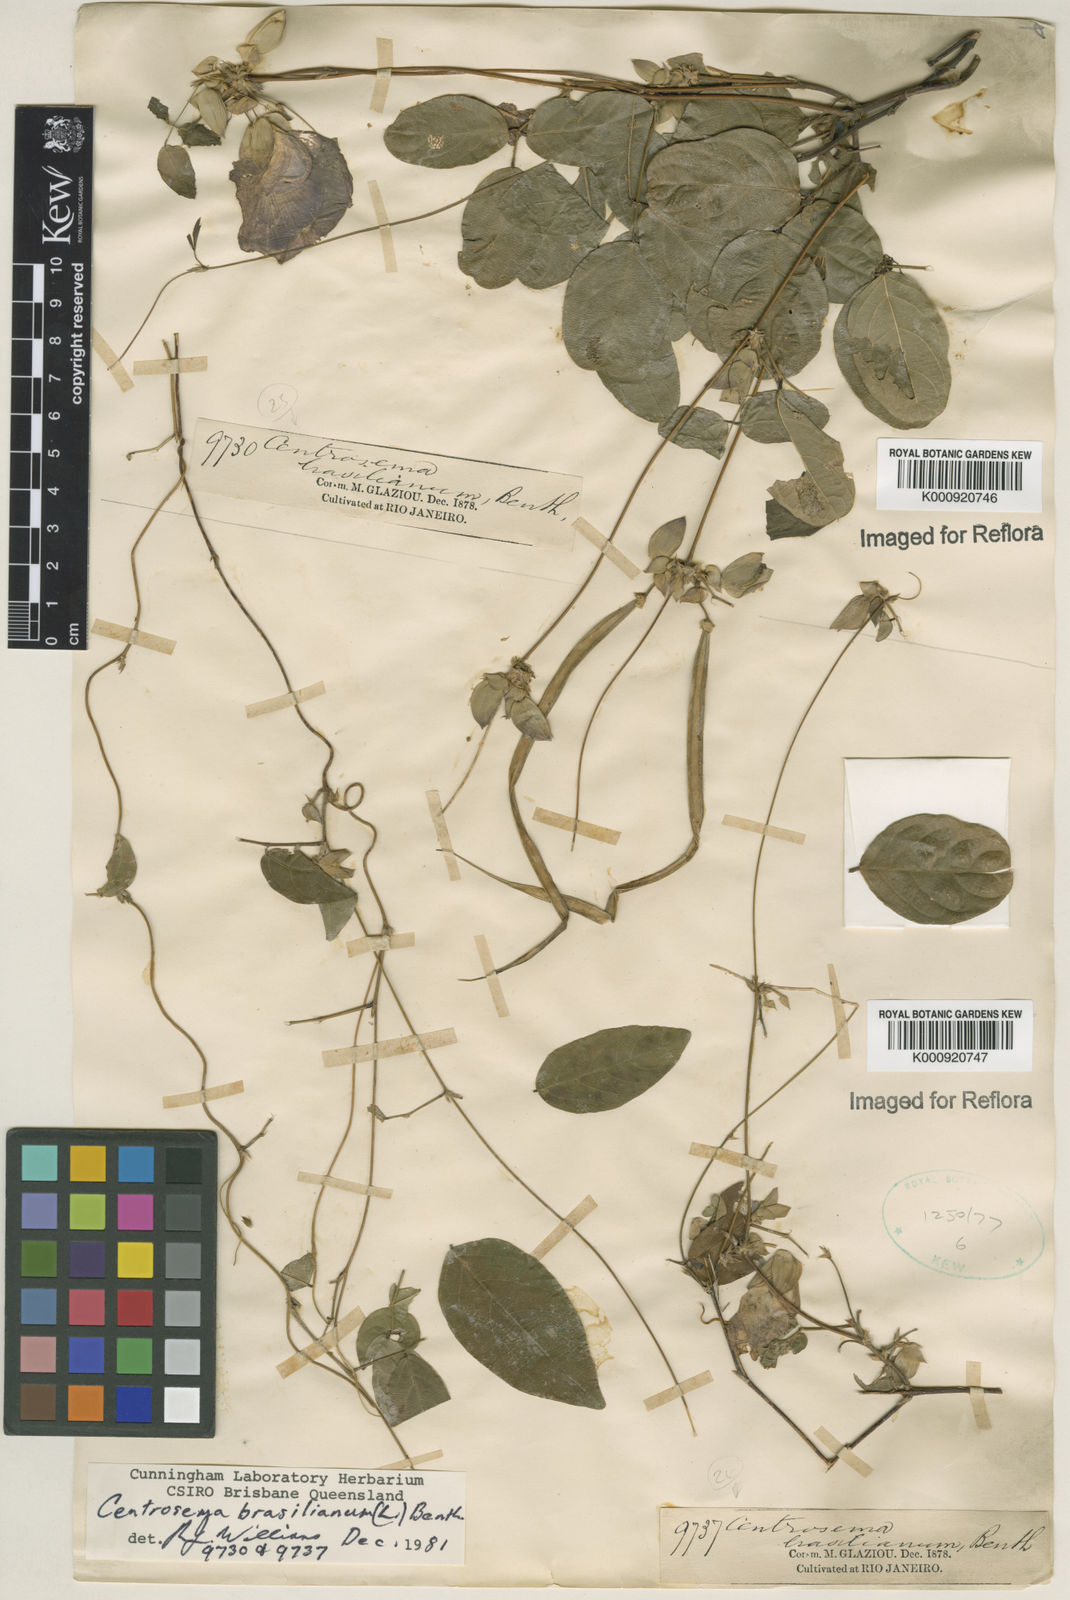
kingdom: Plantae
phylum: Tracheophyta
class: Magnoliopsida
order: Fabales
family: Fabaceae
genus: Centrosema
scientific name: Centrosema brasilianum
